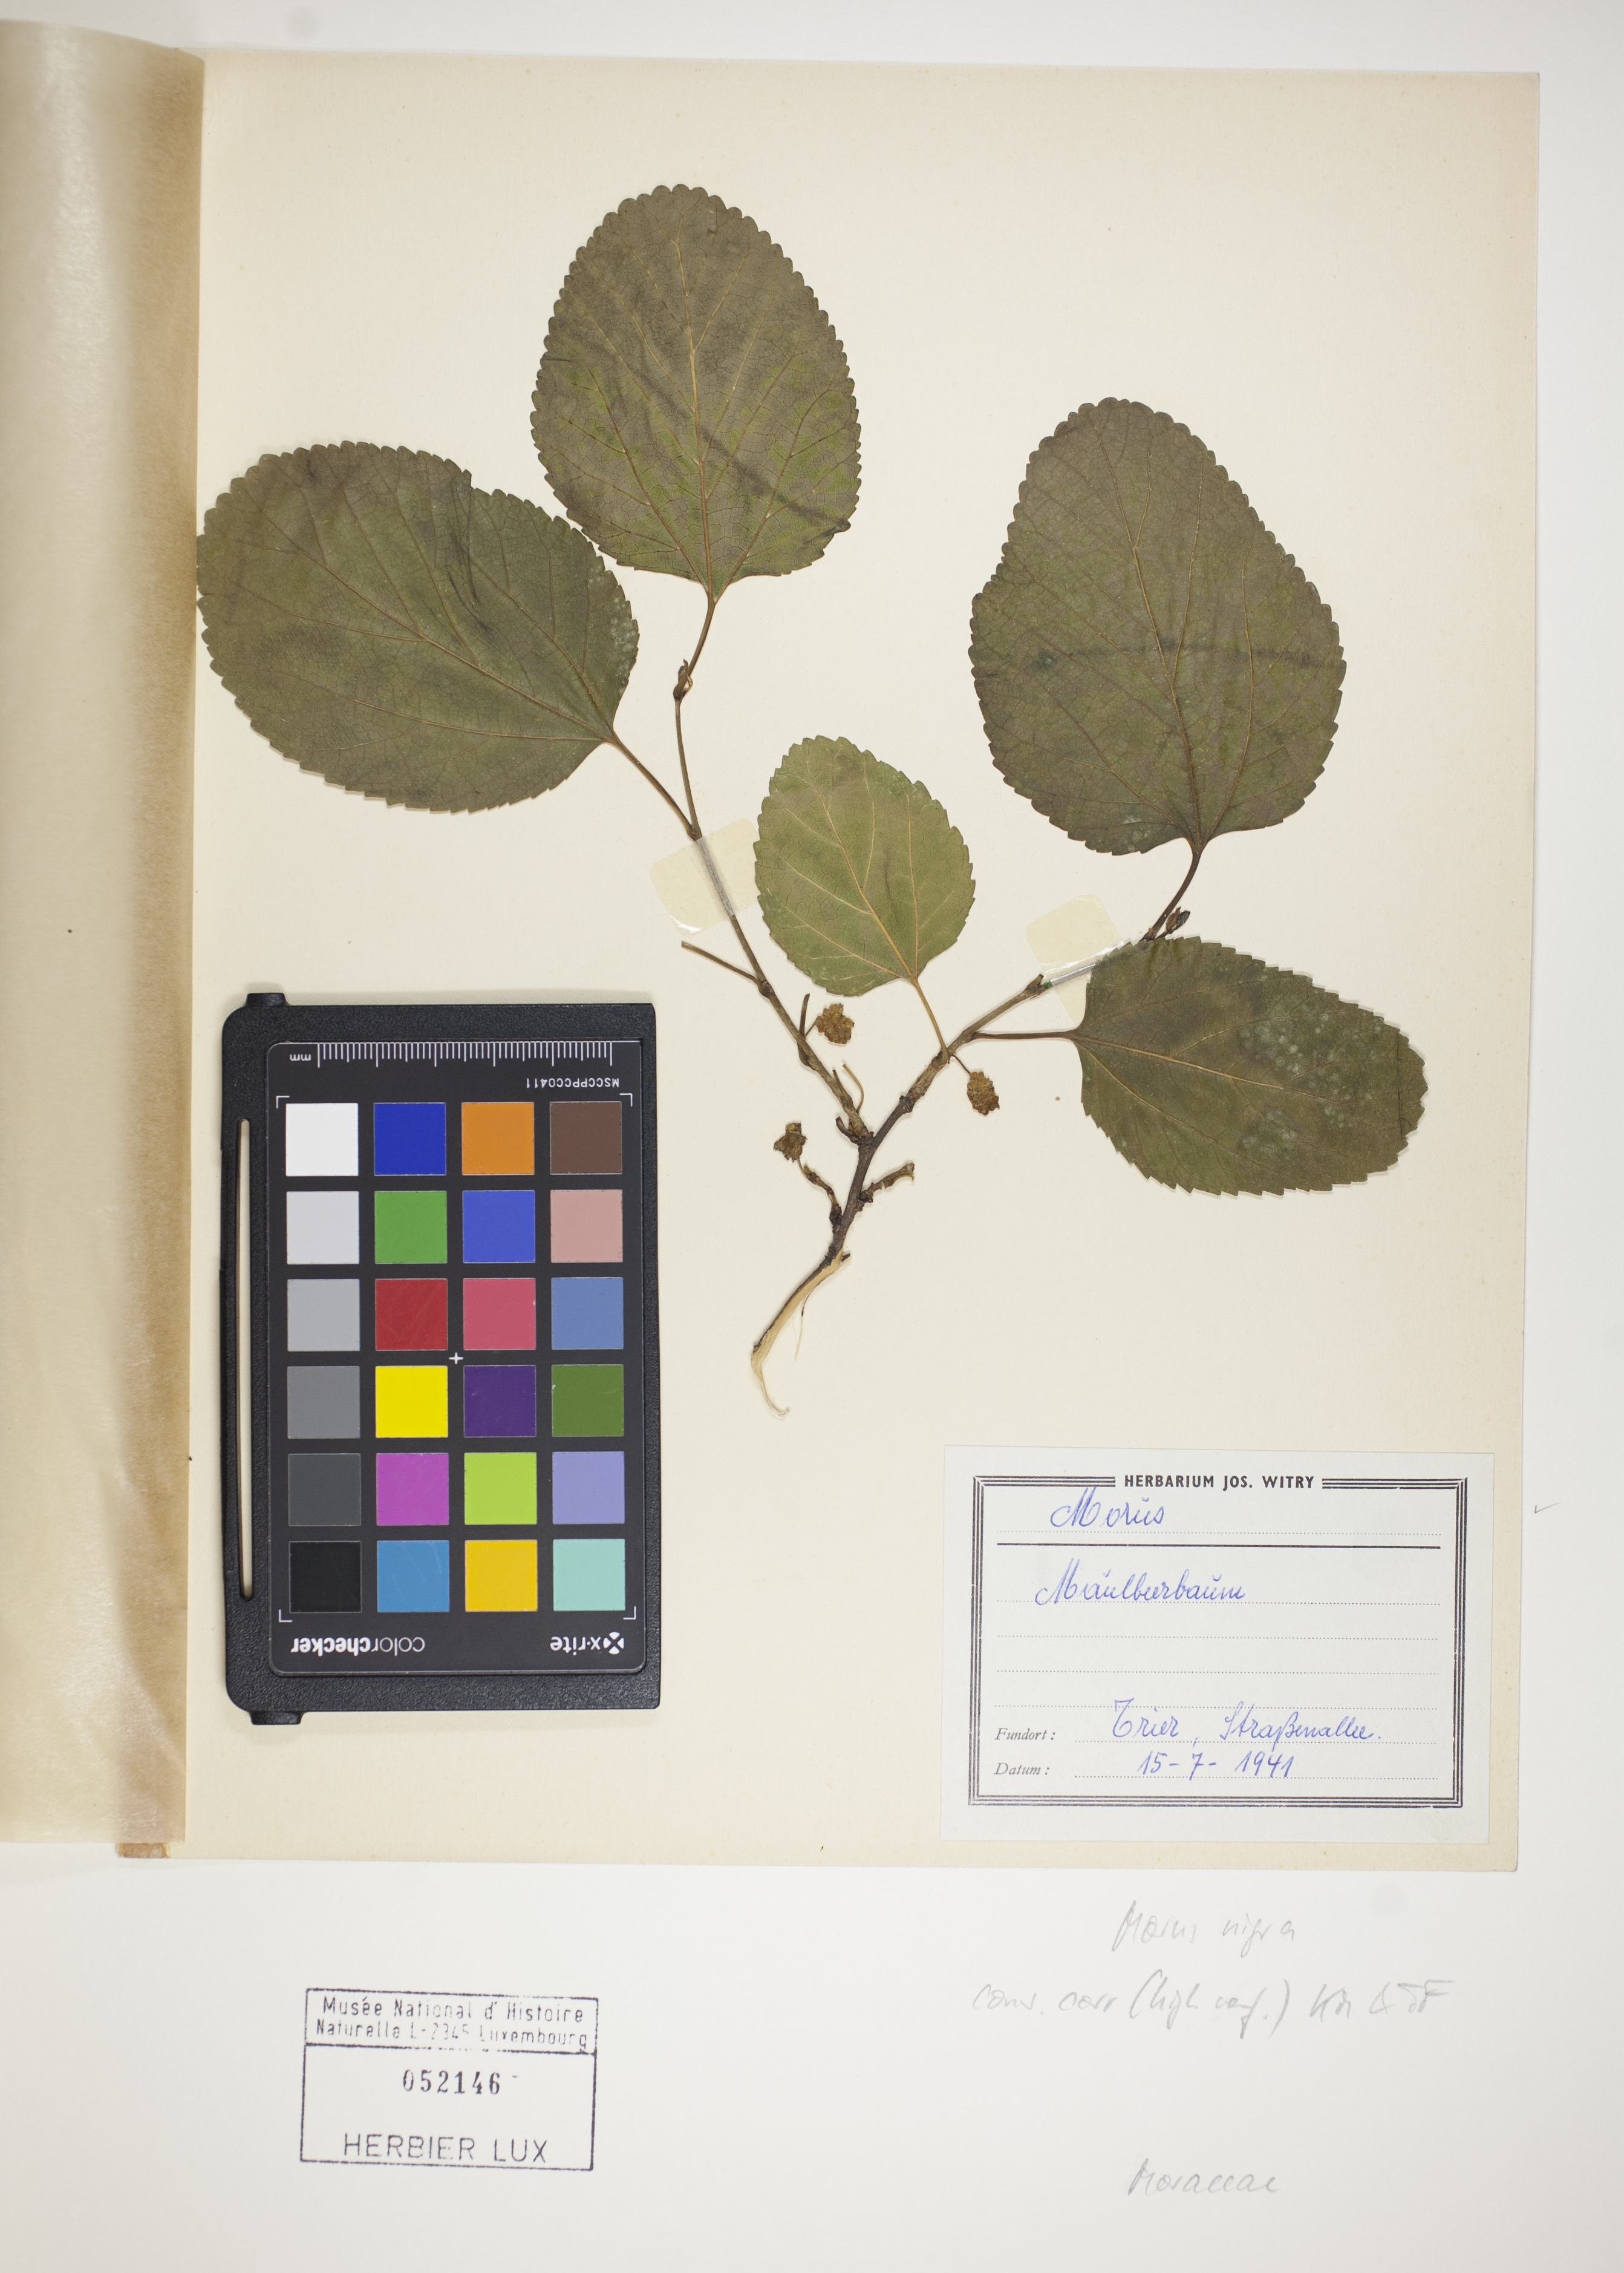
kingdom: Plantae
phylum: Tracheophyta
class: Magnoliopsida
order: Rosales
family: Moraceae
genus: Morus
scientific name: Morus nigra
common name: Black mulberry
